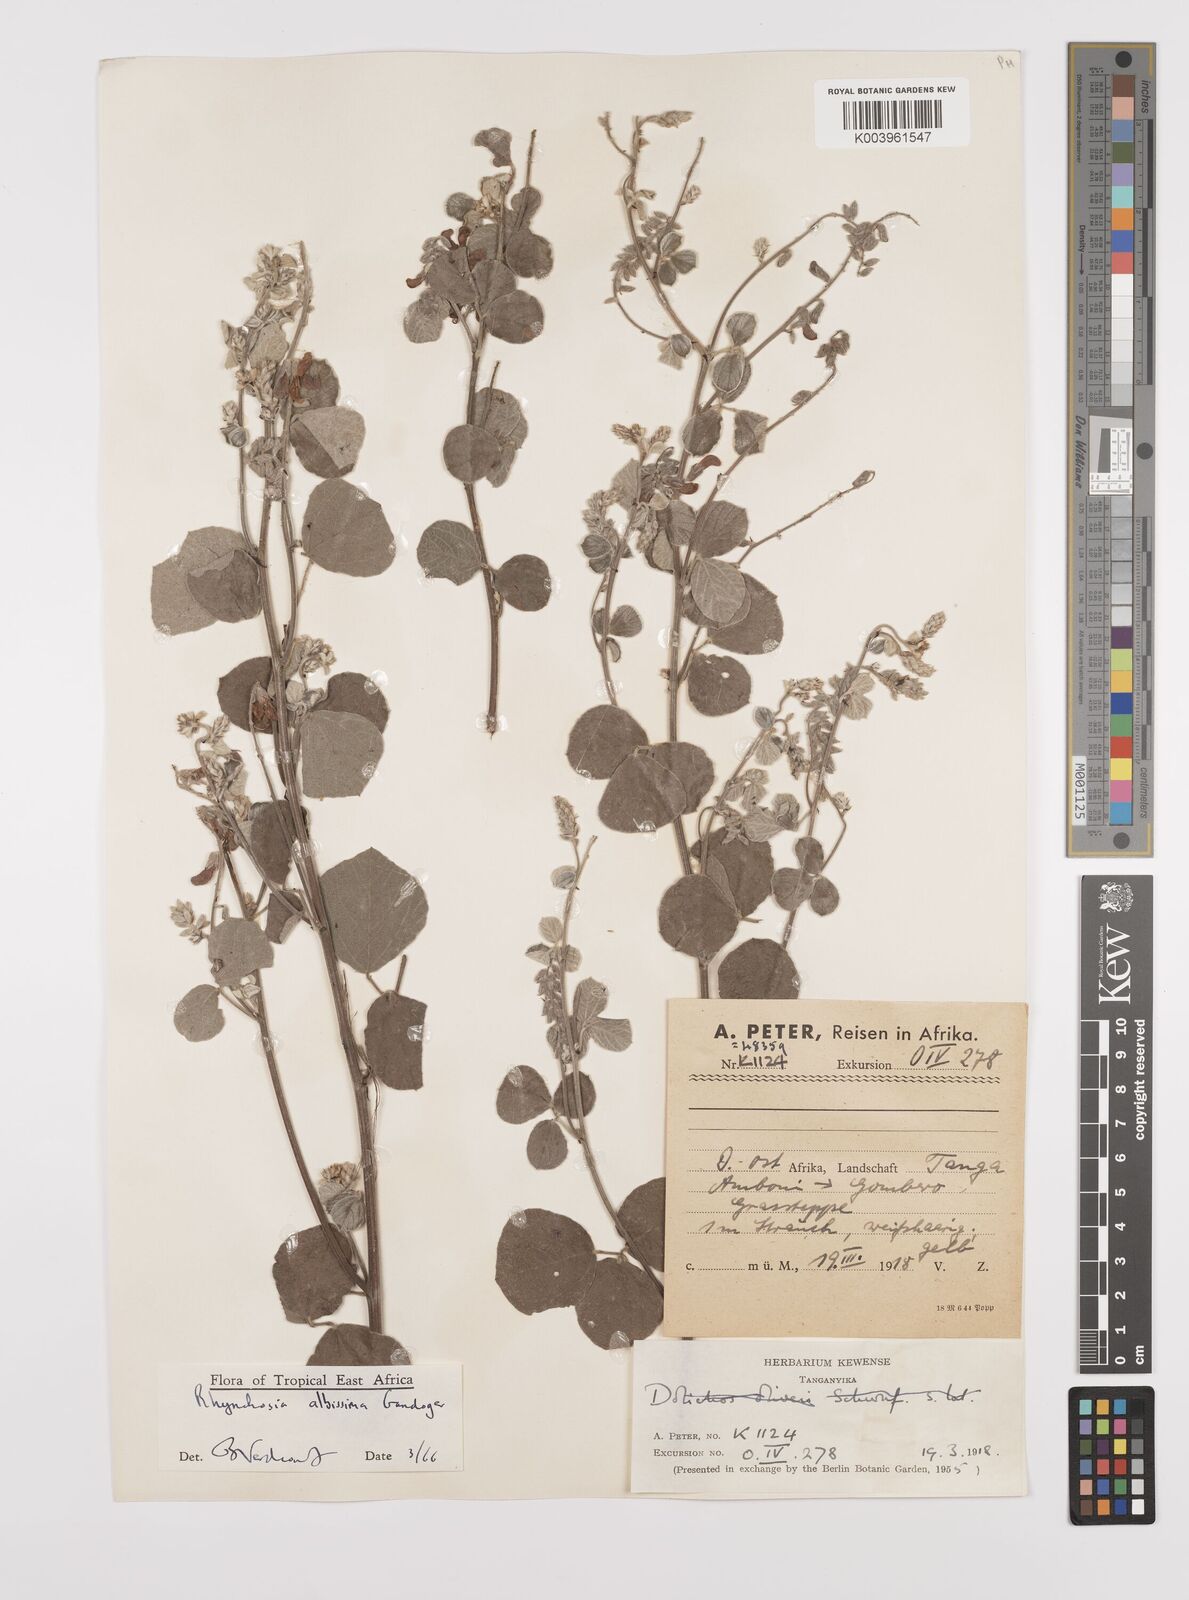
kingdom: Plantae
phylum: Tracheophyta
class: Magnoliopsida
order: Fabales
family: Fabaceae
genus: Rhynchosia
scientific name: Rhynchosia albissima
